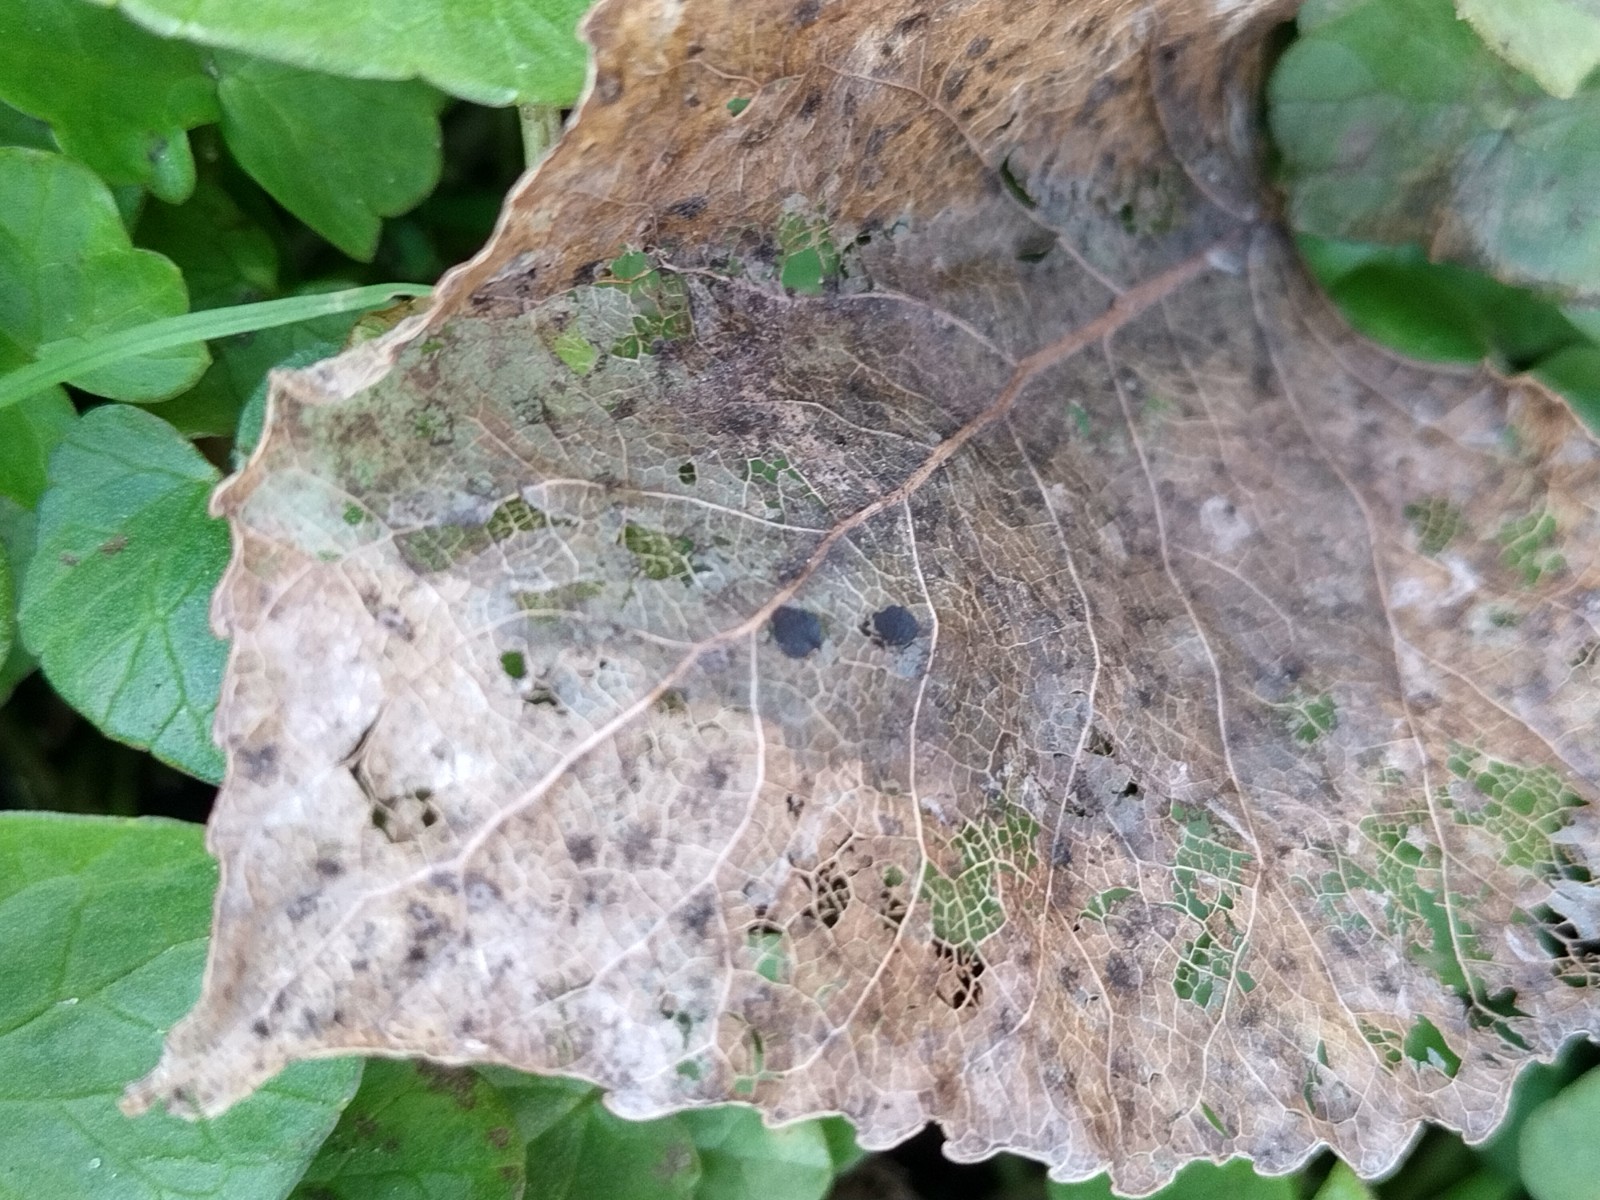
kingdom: Fungi
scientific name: Fungi
